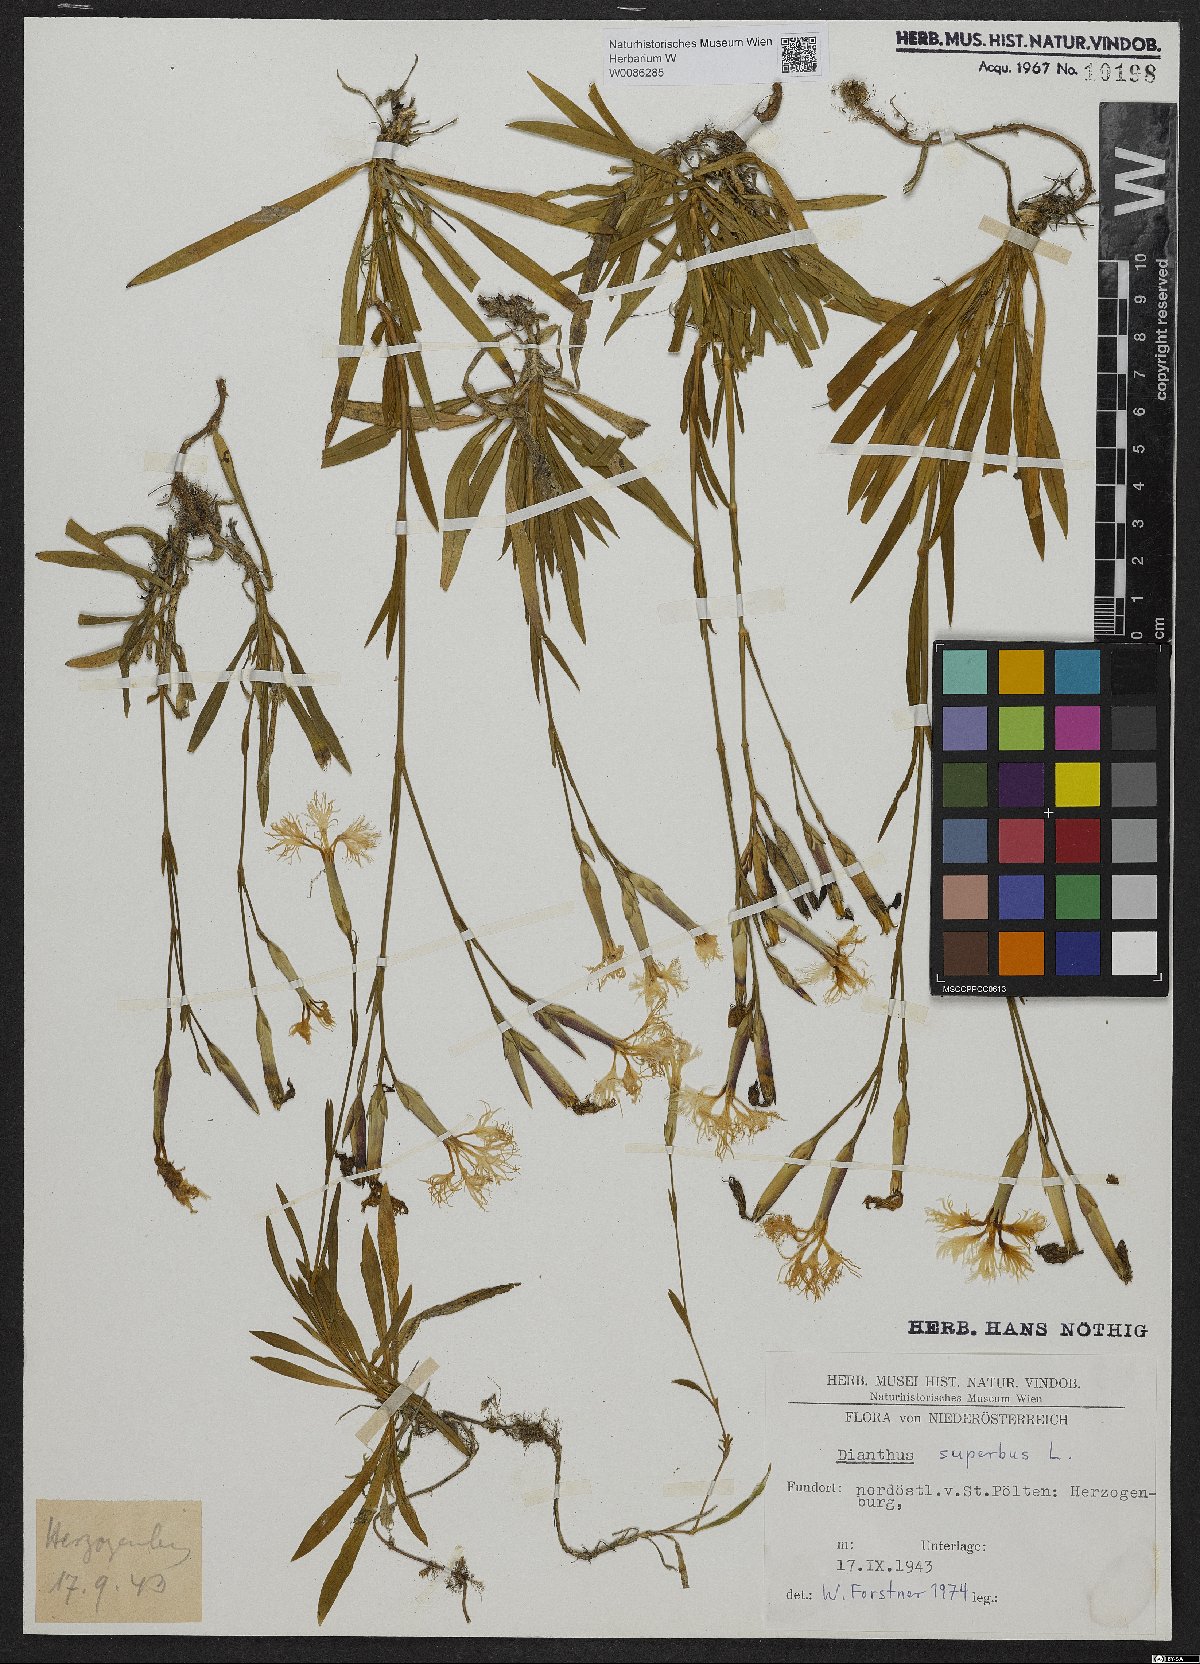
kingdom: Plantae
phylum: Tracheophyta
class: Magnoliopsida
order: Caryophyllales
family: Caryophyllaceae
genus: Dianthus
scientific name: Dianthus superbus
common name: Fringed pink
